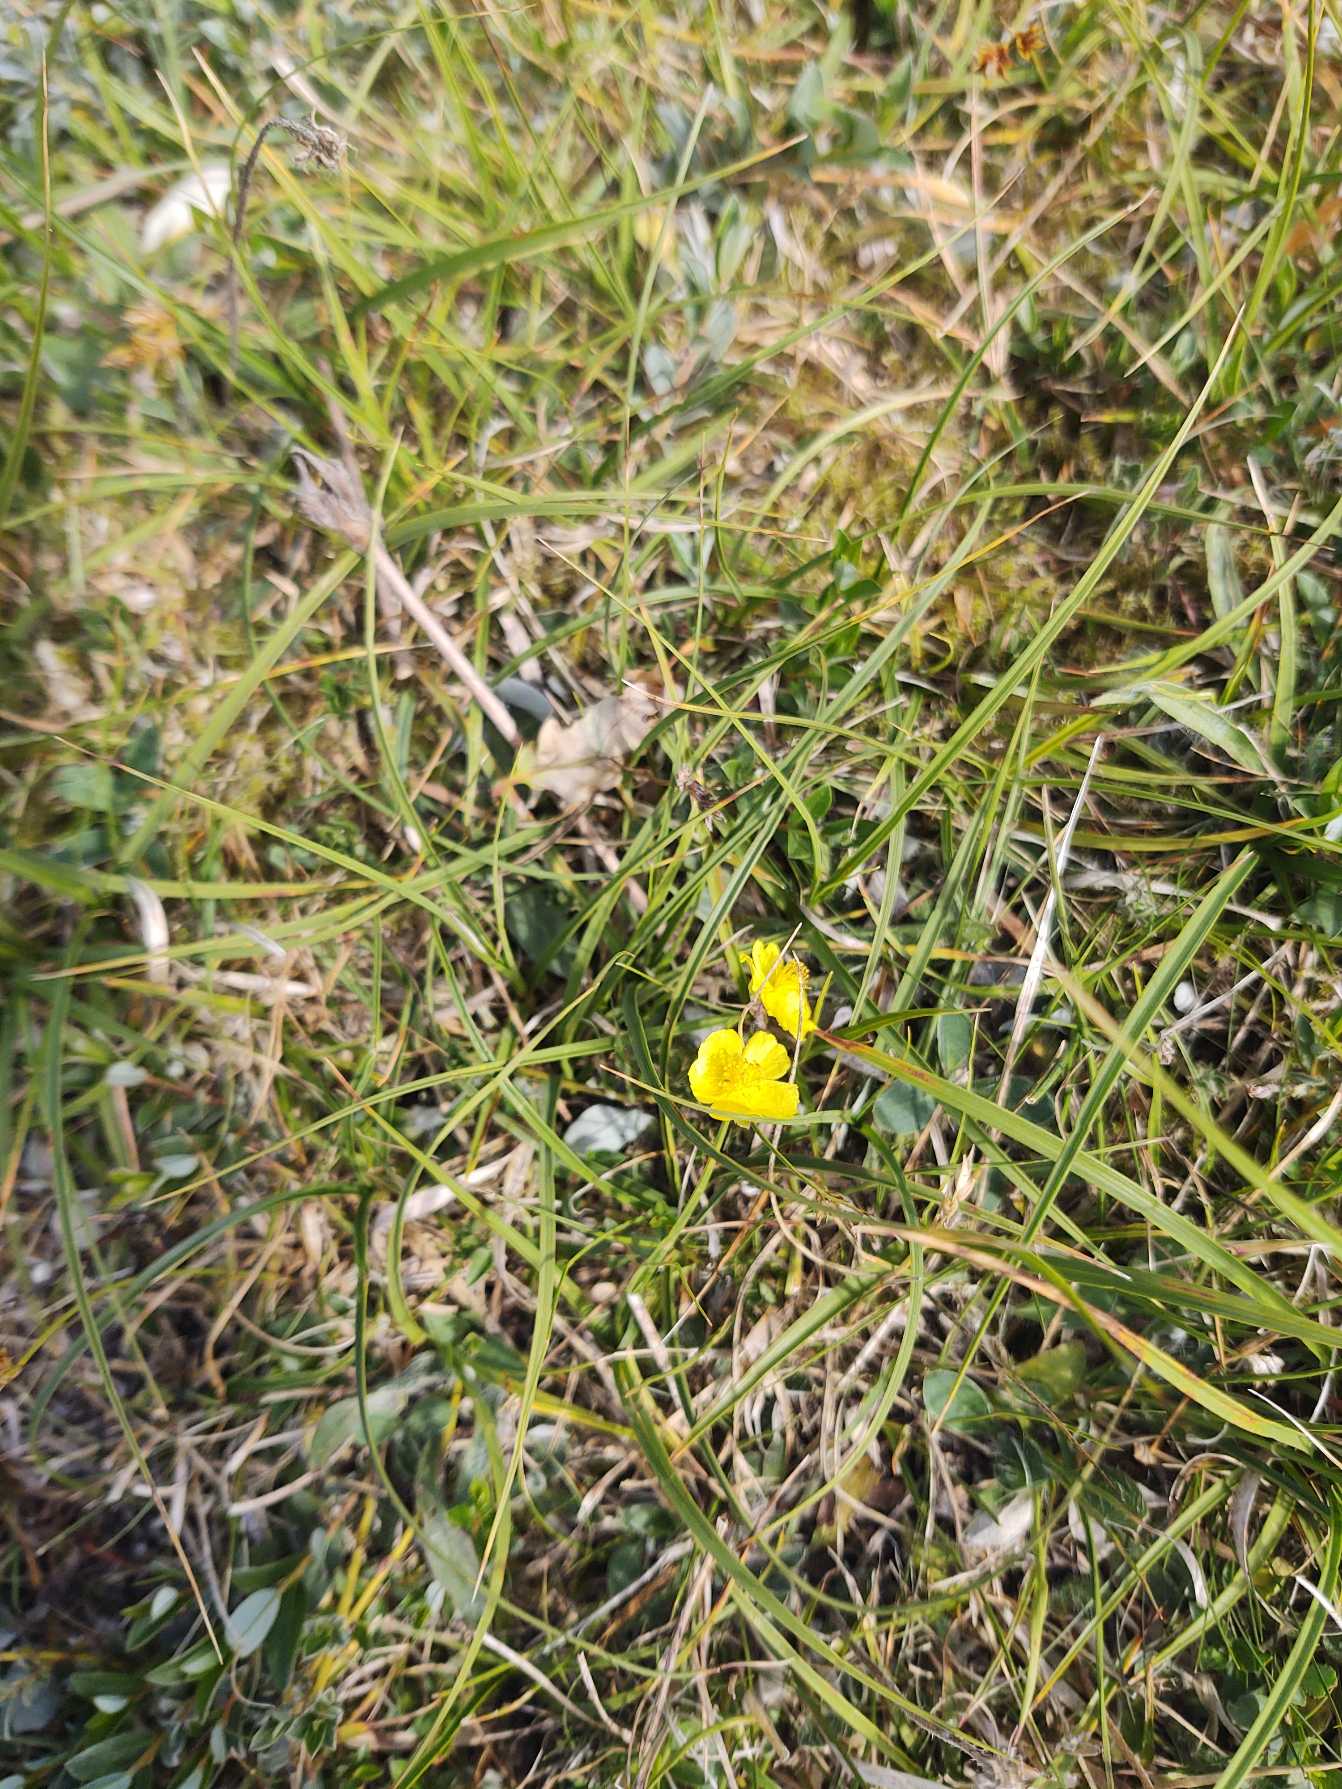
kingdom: Plantae
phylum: Tracheophyta
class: Magnoliopsida
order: Malvales
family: Cistaceae
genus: Helianthemum
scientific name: Helianthemum nummularium
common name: Soløje
